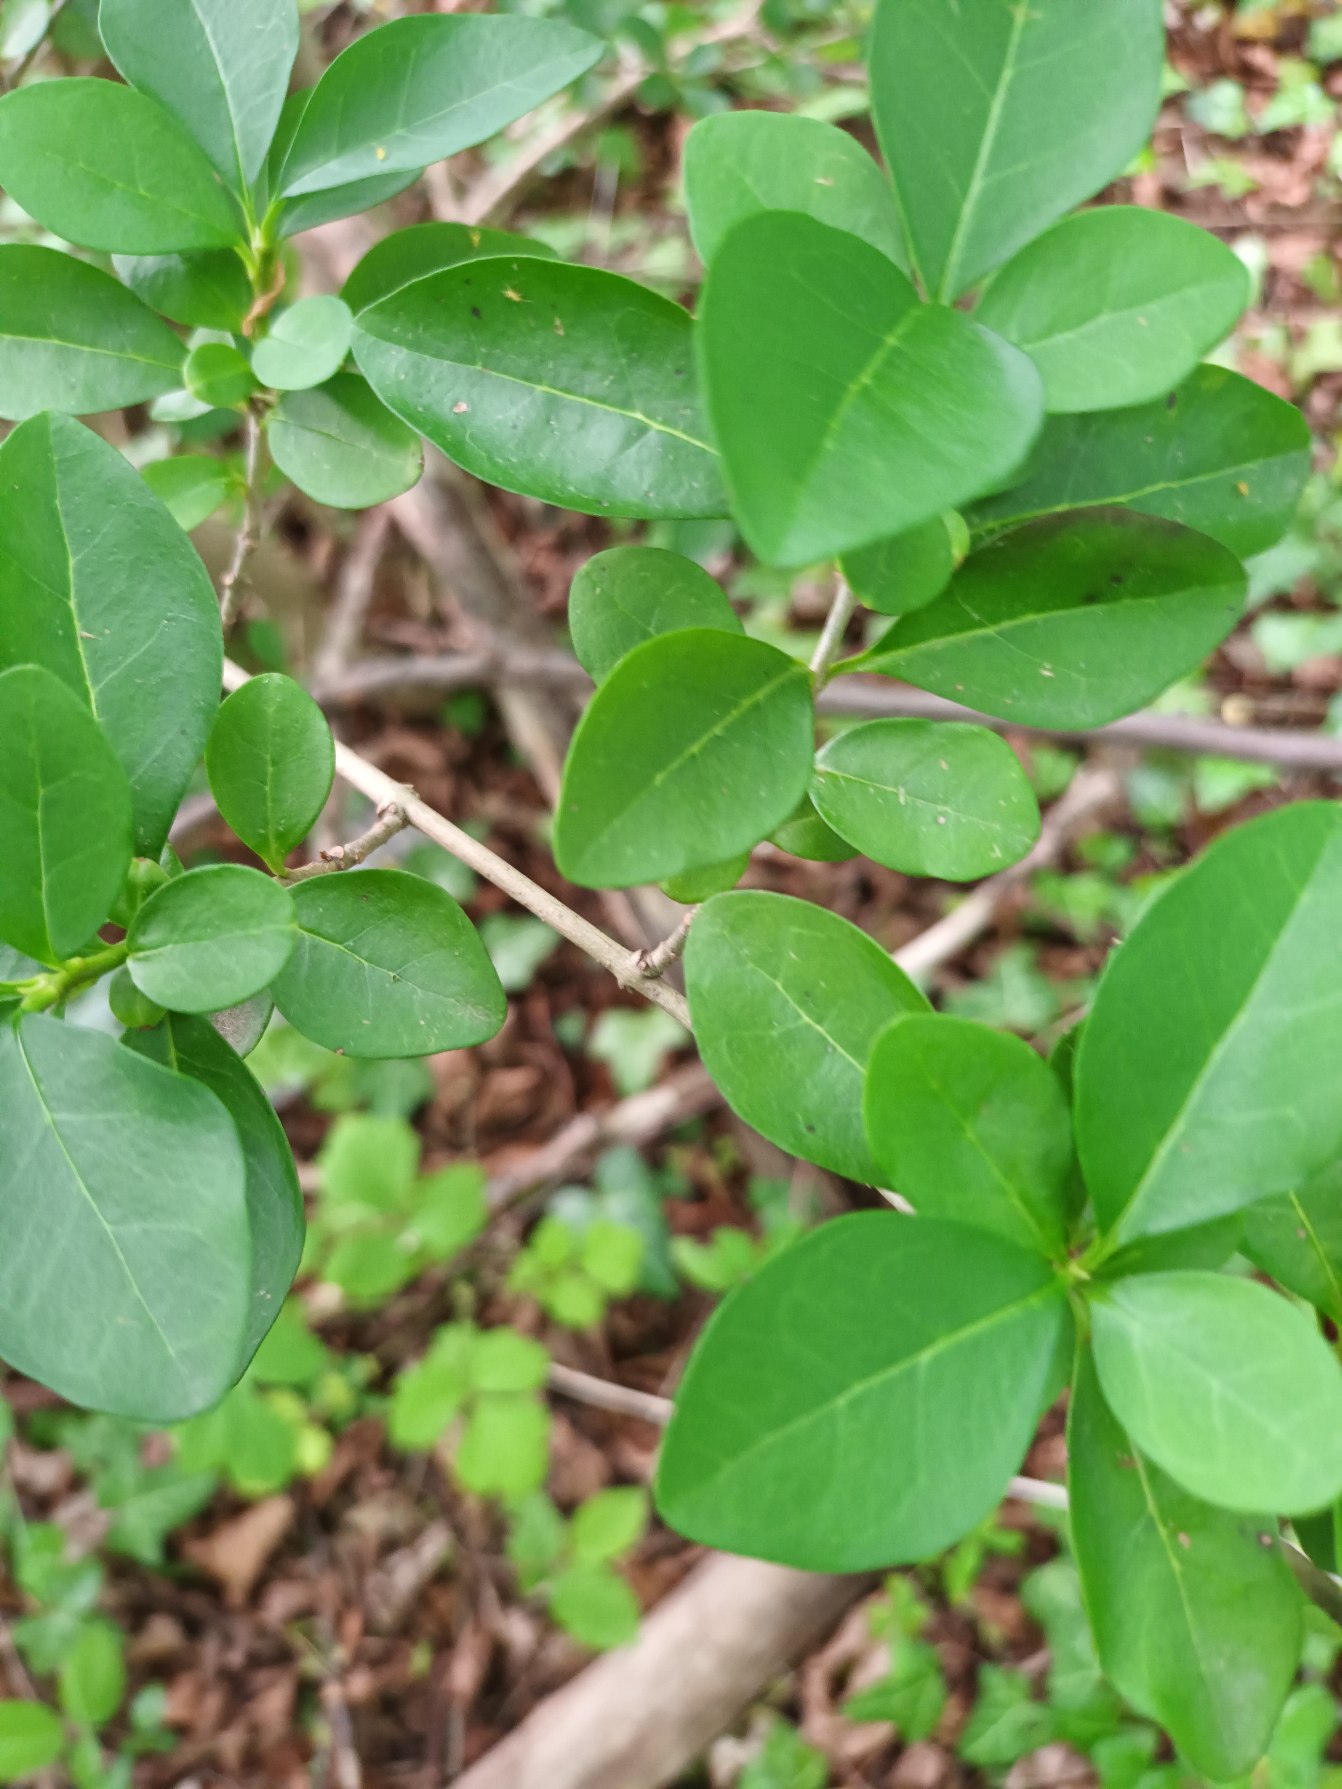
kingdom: Plantae
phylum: Tracheophyta
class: Magnoliopsida
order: Lamiales
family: Oleaceae
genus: Ligustrum
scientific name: Ligustrum ovalifolium
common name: Storbladet liguster
